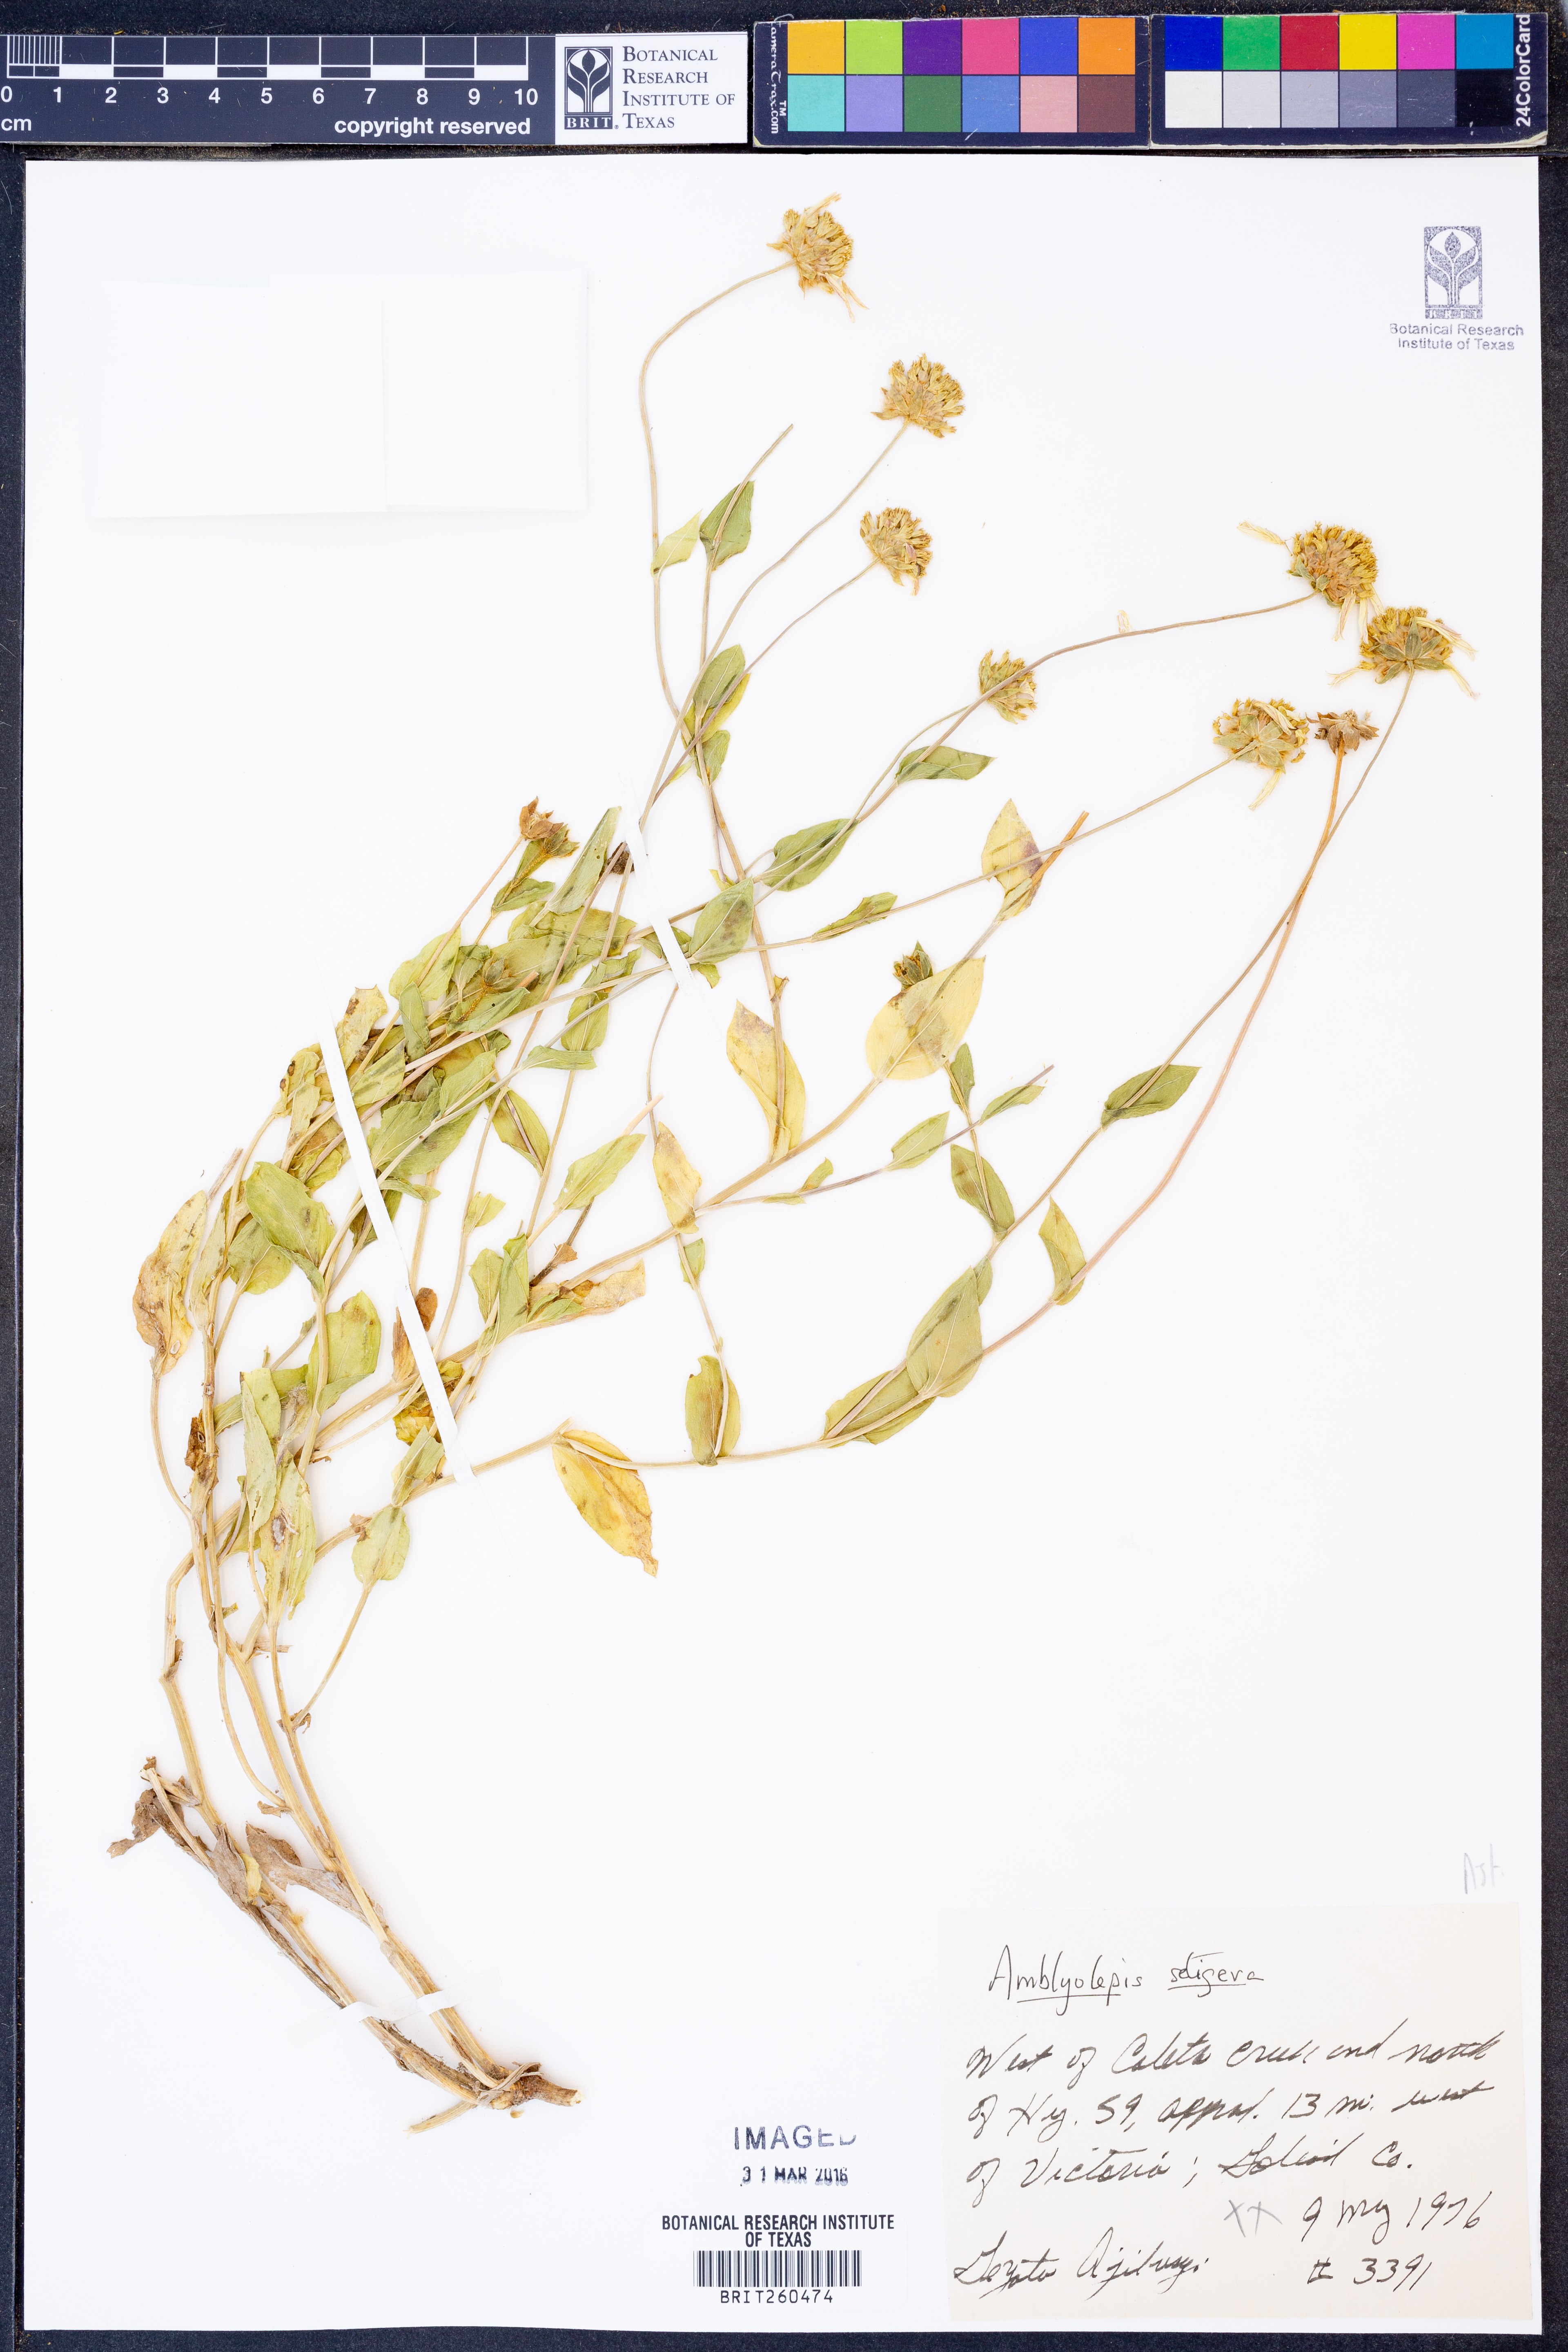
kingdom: Plantae
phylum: Tracheophyta
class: Magnoliopsida
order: Asterales
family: Asteraceae
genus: Amblyolepis
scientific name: Amblyolepis setigera
